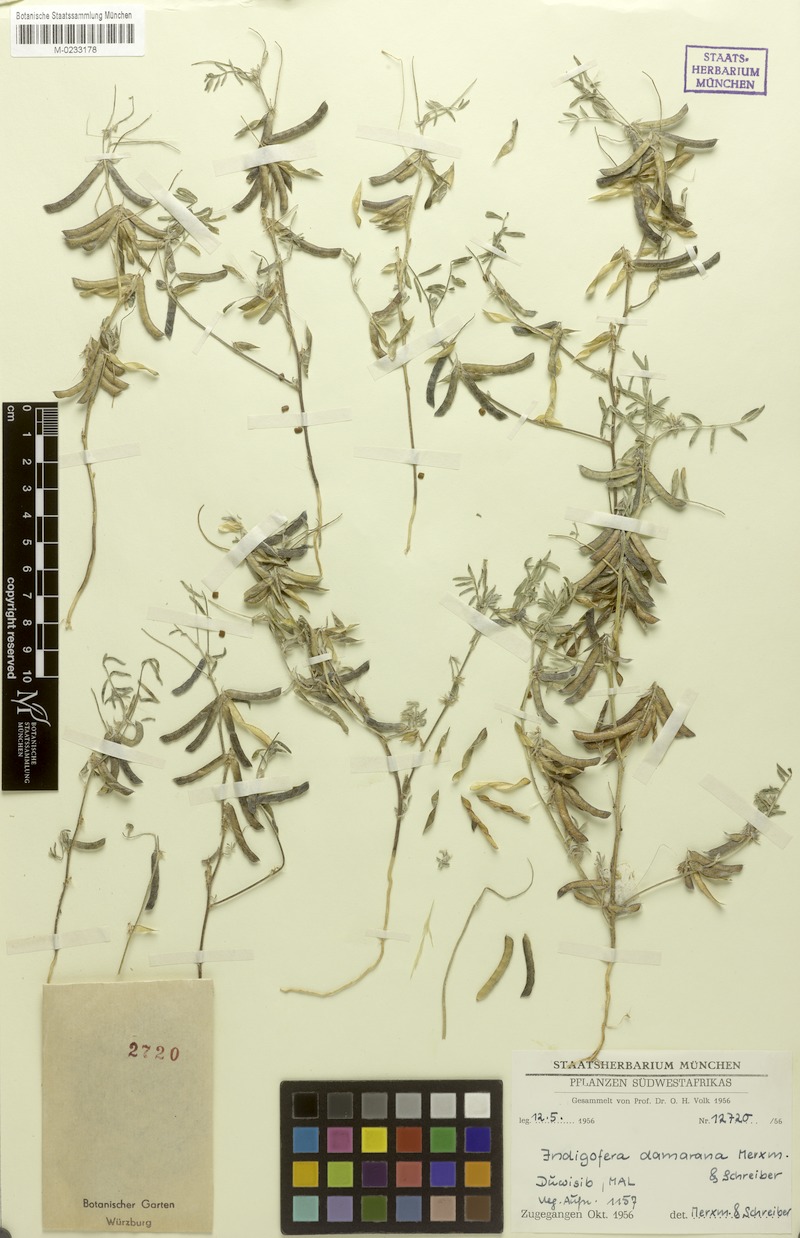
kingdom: Plantae
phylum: Tracheophyta
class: Magnoliopsida
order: Fabales
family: Fabaceae
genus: Indigofera
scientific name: Indigofera damarana
